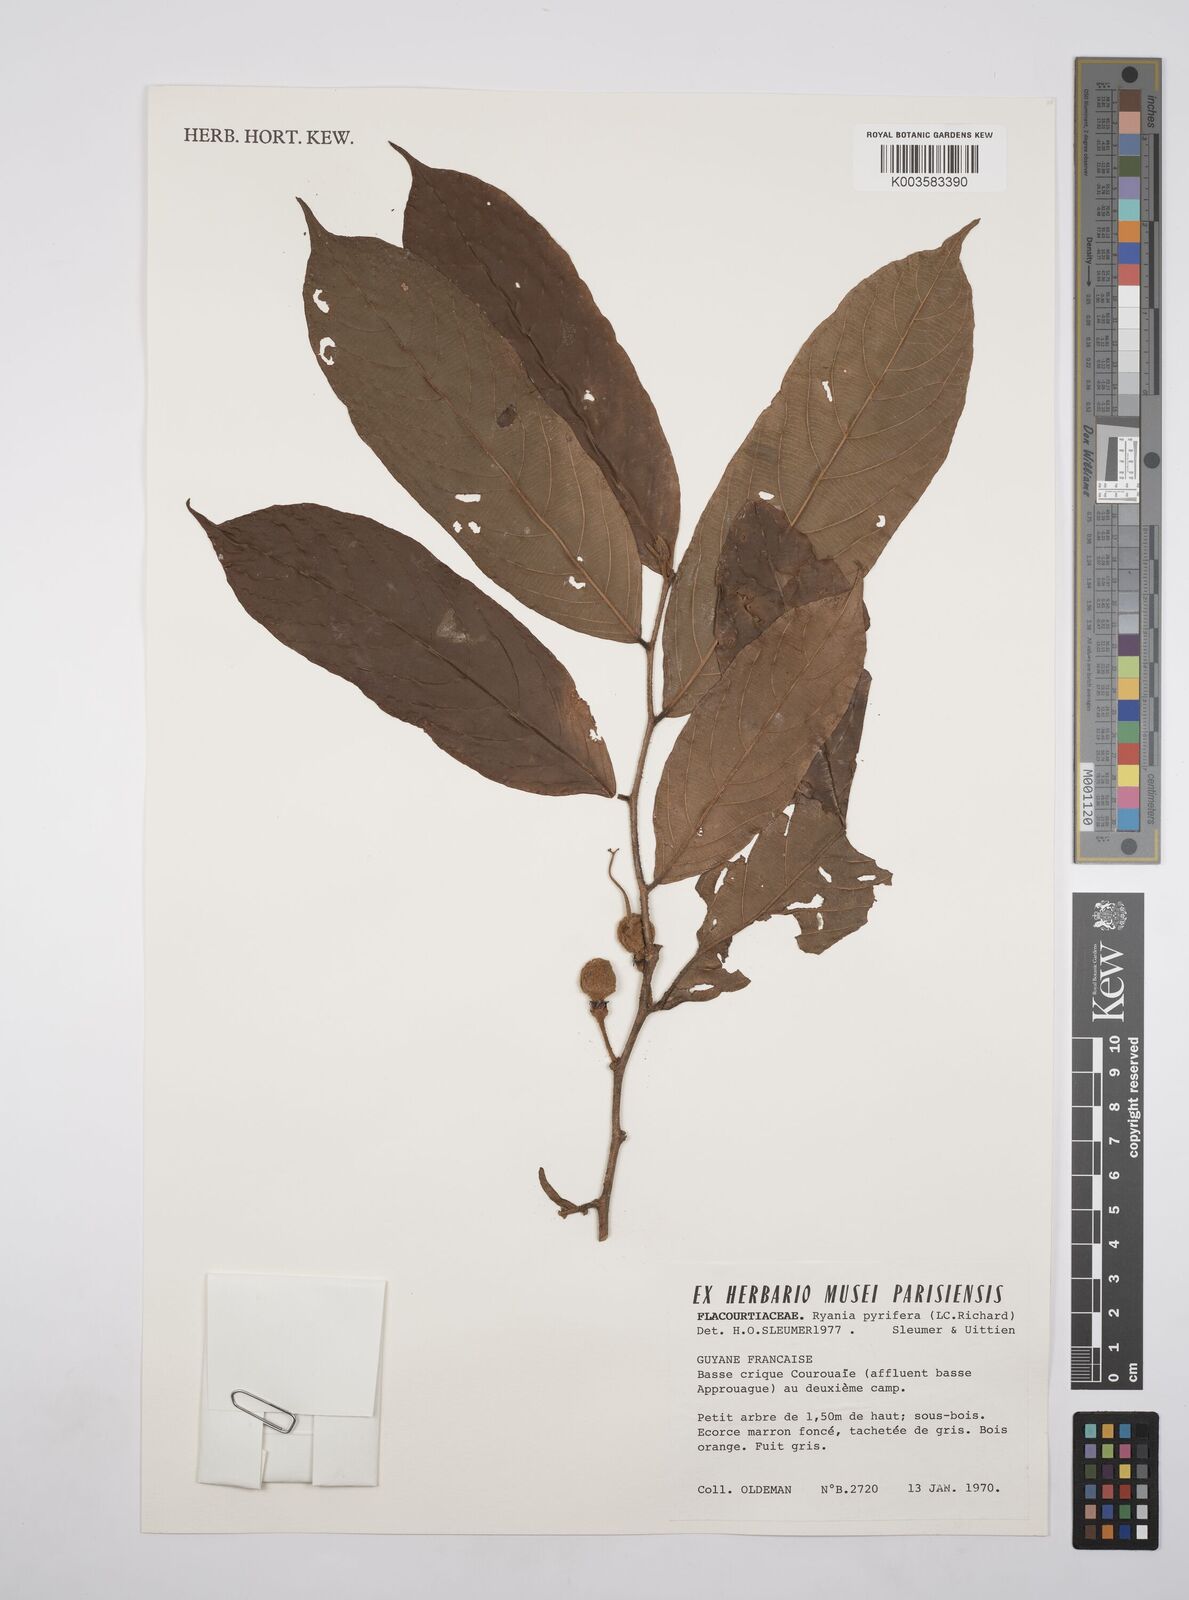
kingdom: Plantae
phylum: Tracheophyta
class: Magnoliopsida
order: Malpighiales
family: Salicaceae
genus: Ryania
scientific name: Ryania pyrifera
